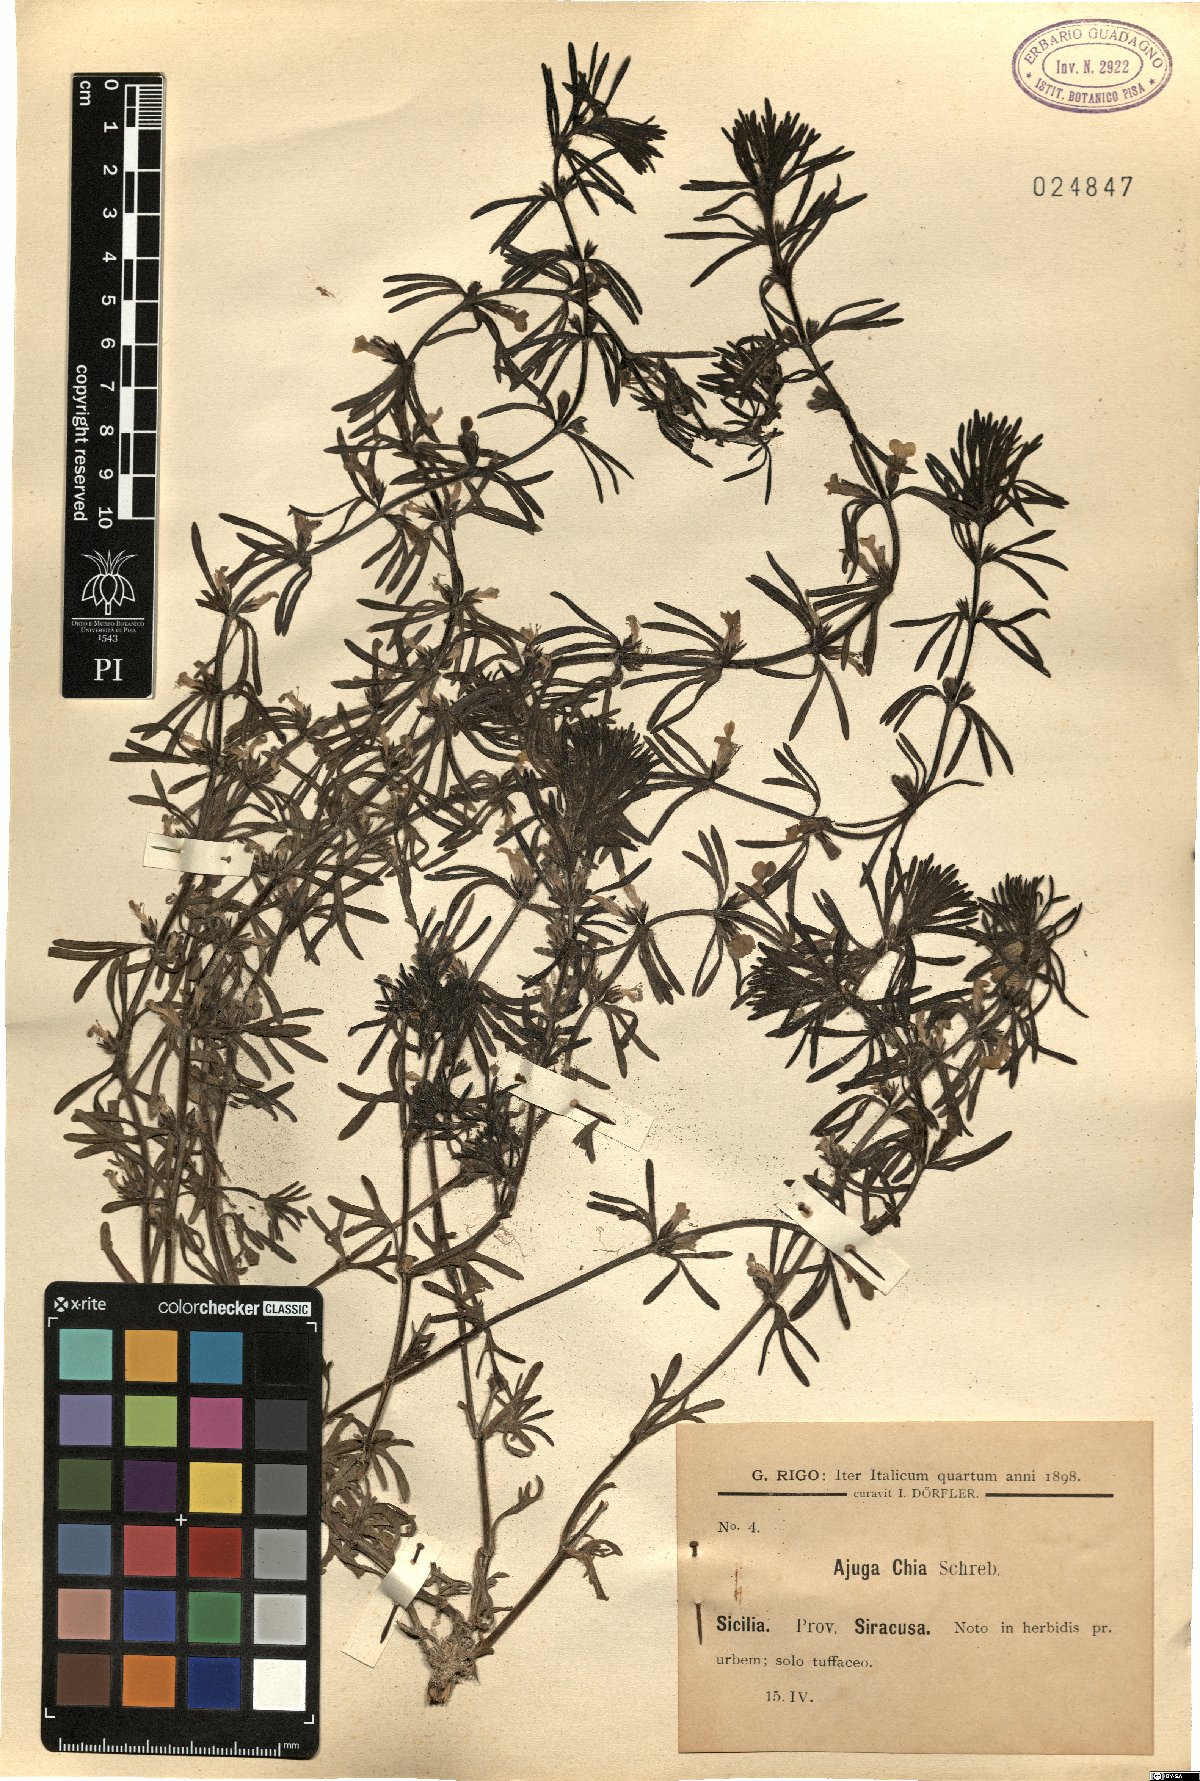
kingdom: Plantae
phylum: Tracheophyta
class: Magnoliopsida
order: Lamiales
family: Lamiaceae
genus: Ajuga
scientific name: Ajuga chamaepitys
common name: Ground-pine
